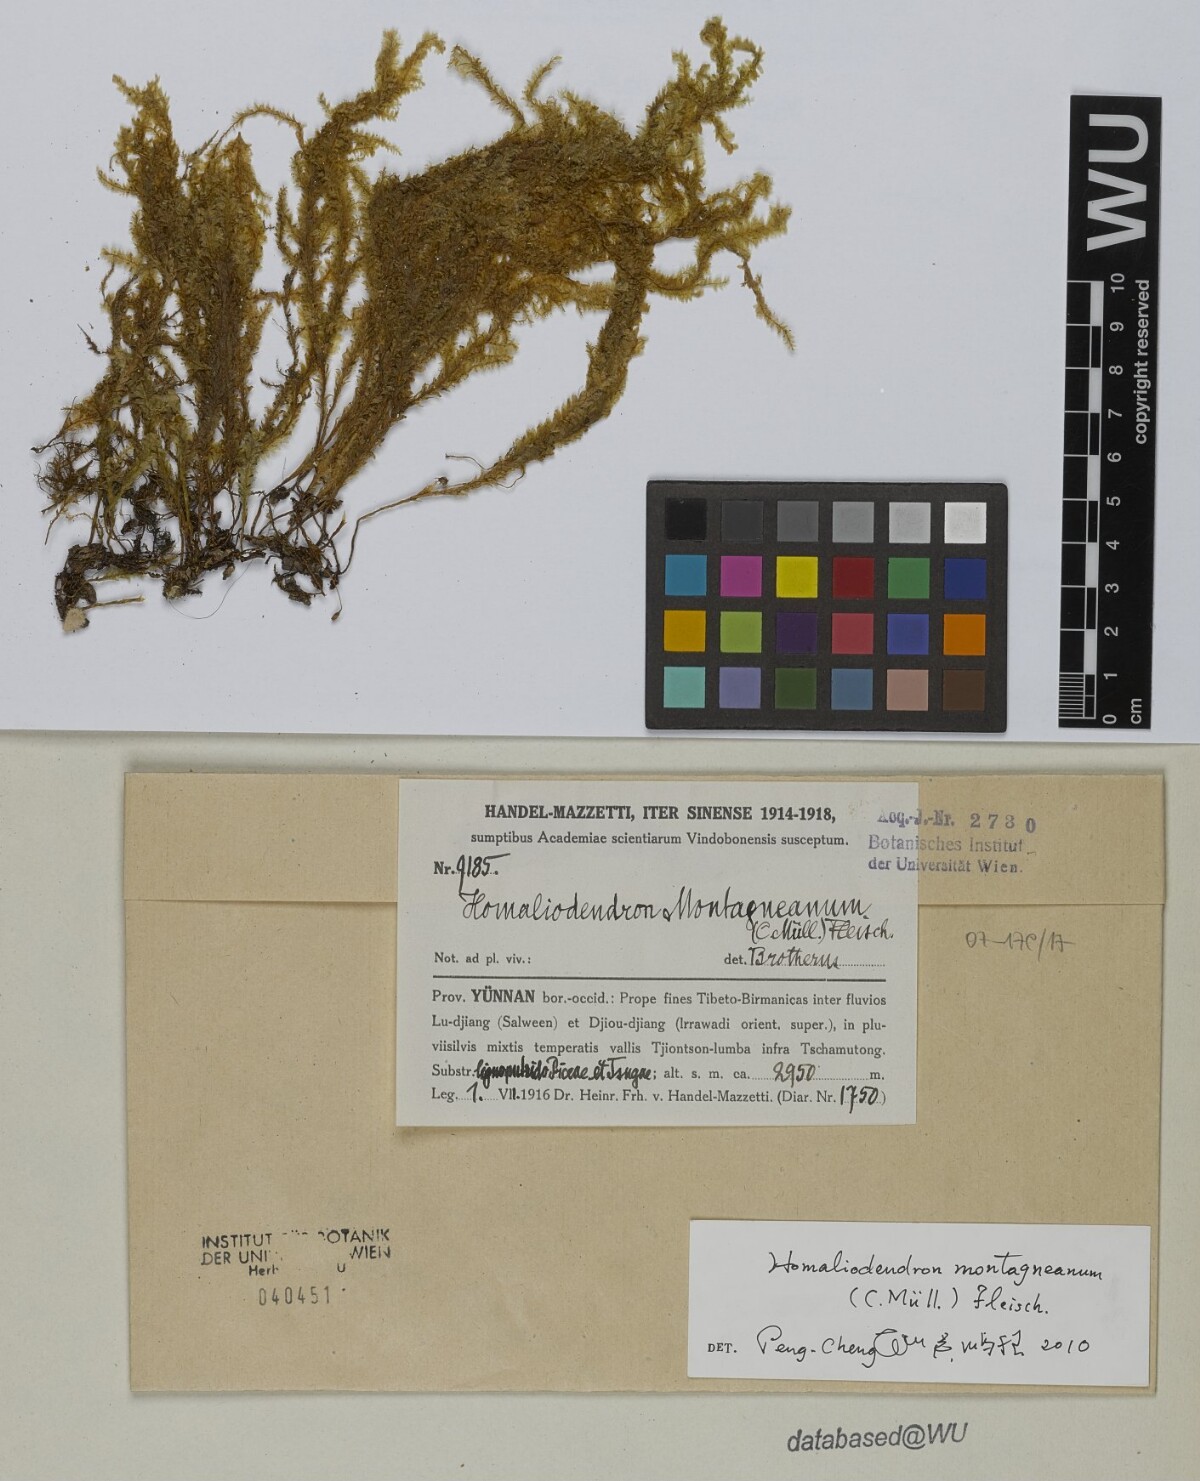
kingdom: Plantae
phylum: Bryophyta
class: Bryopsida
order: Hypnales
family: Neckeraceae
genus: Homaliodendron
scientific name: Homaliodendron montagneanum
